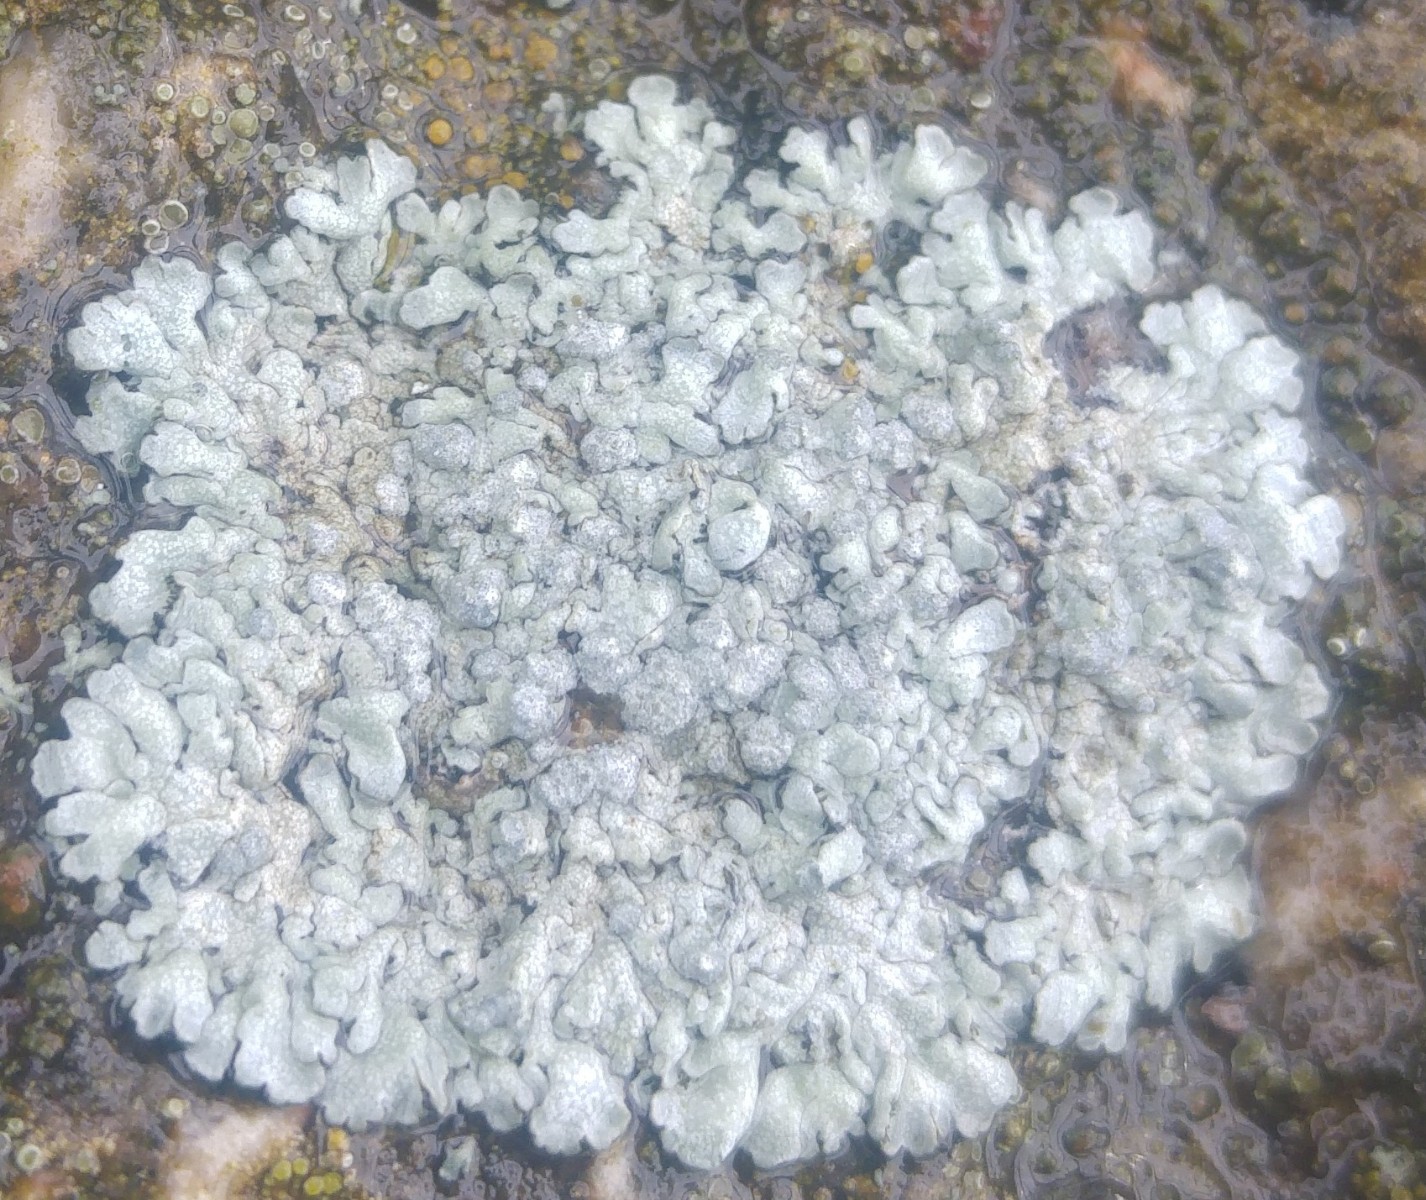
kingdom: Fungi
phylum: Ascomycota
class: Lecanoromycetes
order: Caliciales
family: Physciaceae
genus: Physcia
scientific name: Physcia caesia
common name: blågrå rosetlav
